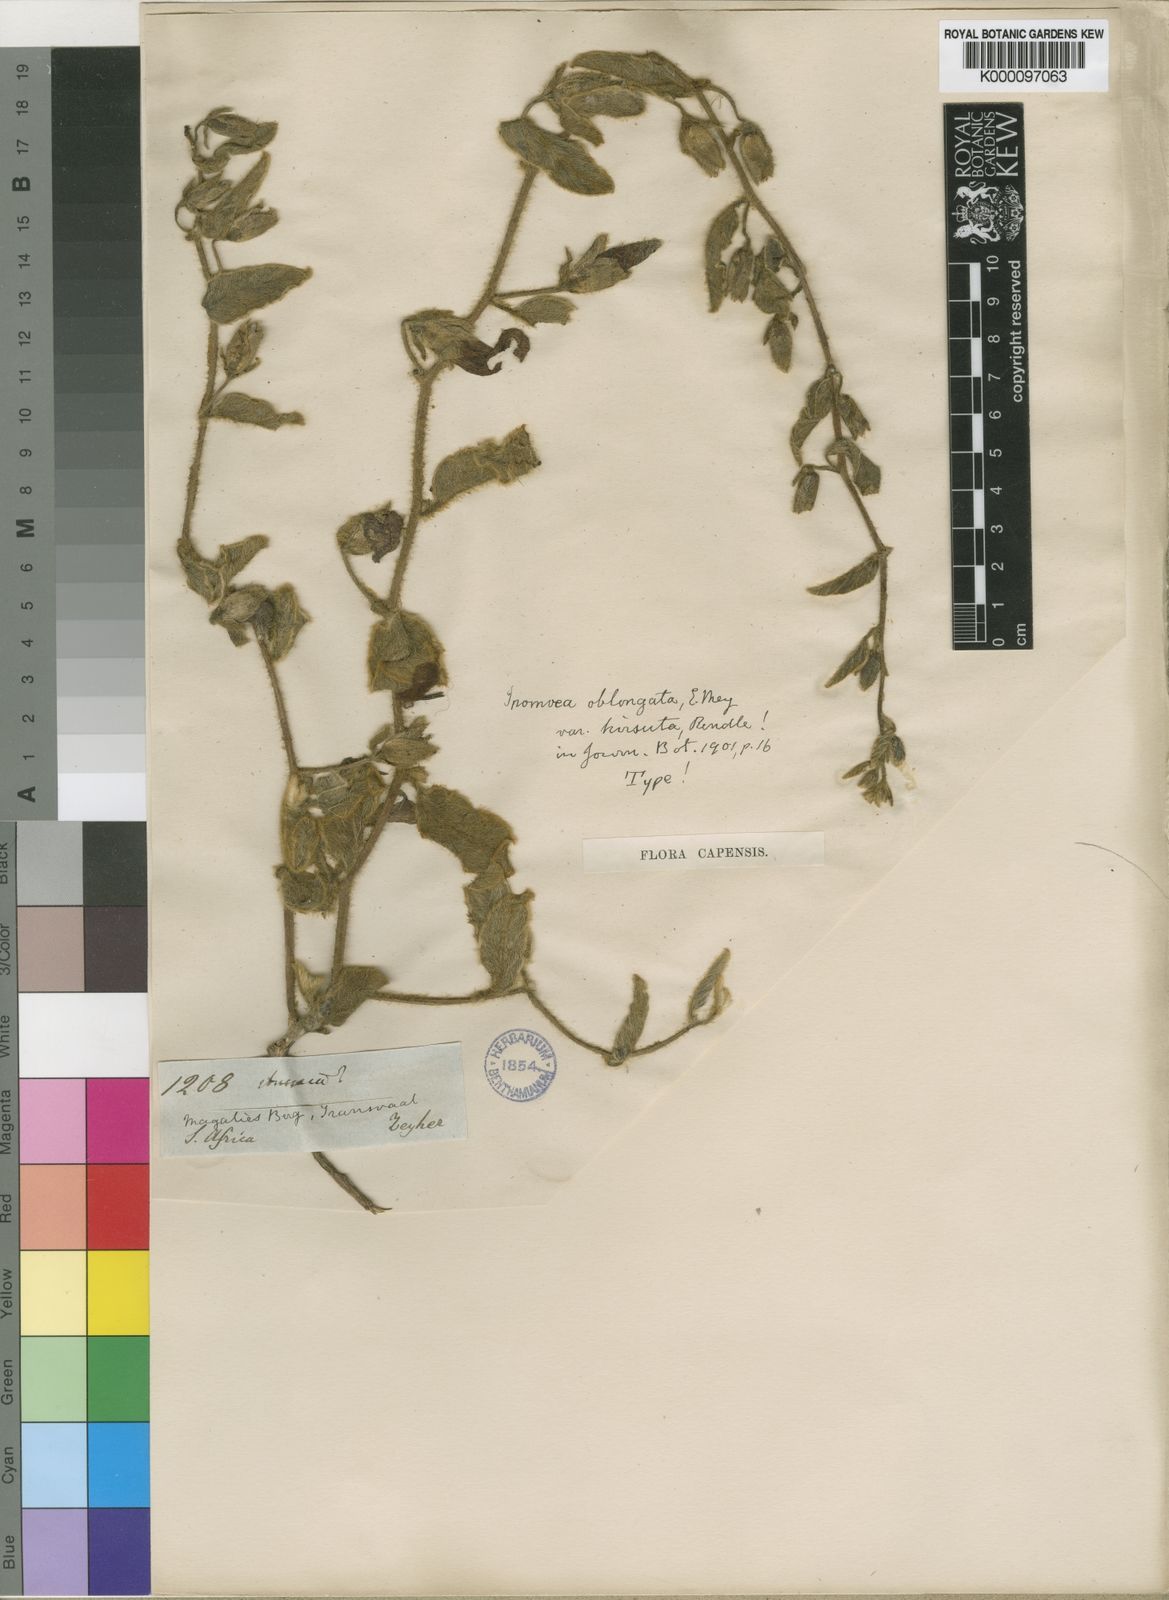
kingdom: Plantae
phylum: Tracheophyta
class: Magnoliopsida
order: Solanales
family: Convolvulaceae
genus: Ipomoea
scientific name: Ipomoea oblongata
